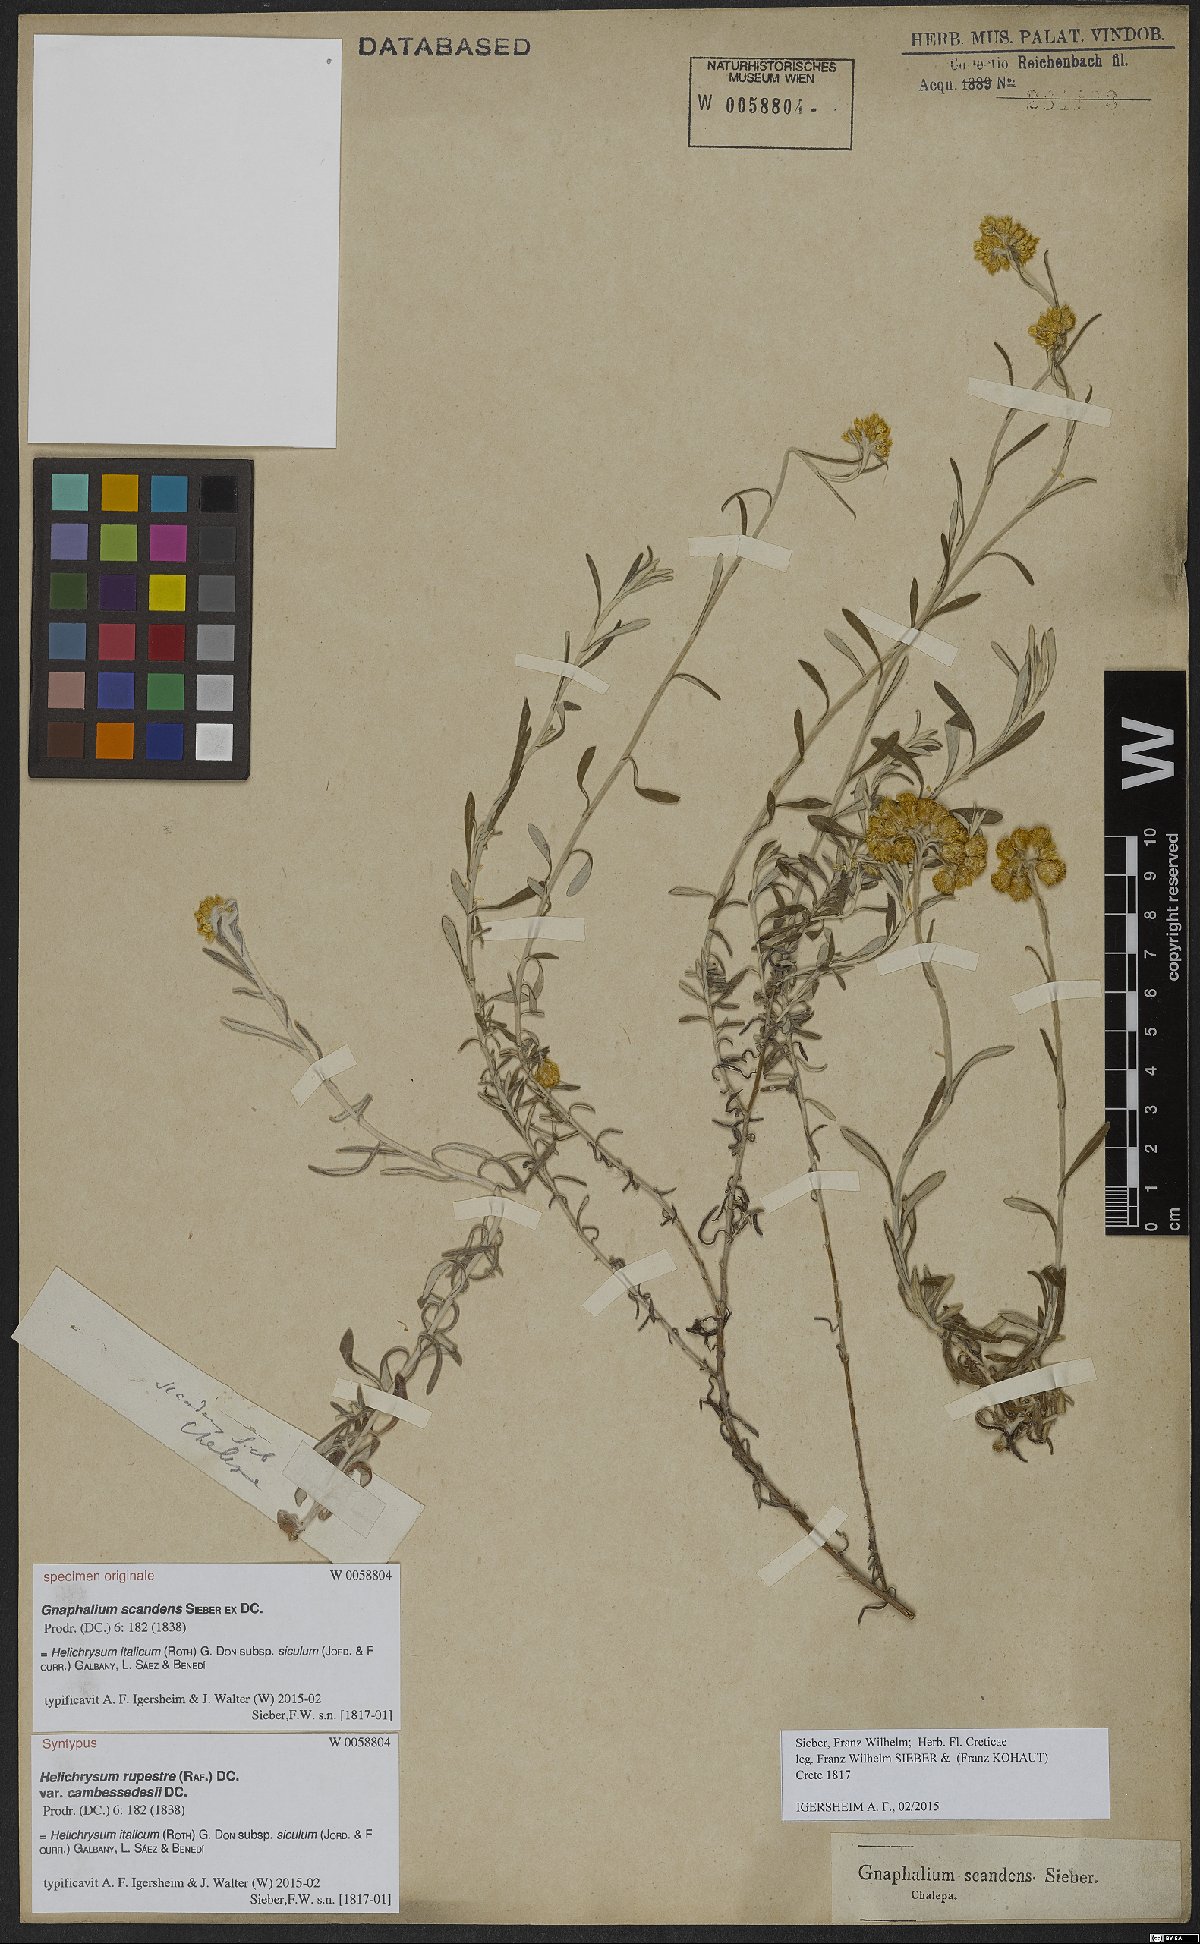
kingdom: Plantae
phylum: Tracheophyta
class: Magnoliopsida
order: Asterales
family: Asteraceae
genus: Helichrysum
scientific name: Helichrysum italicum
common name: Curryplant
